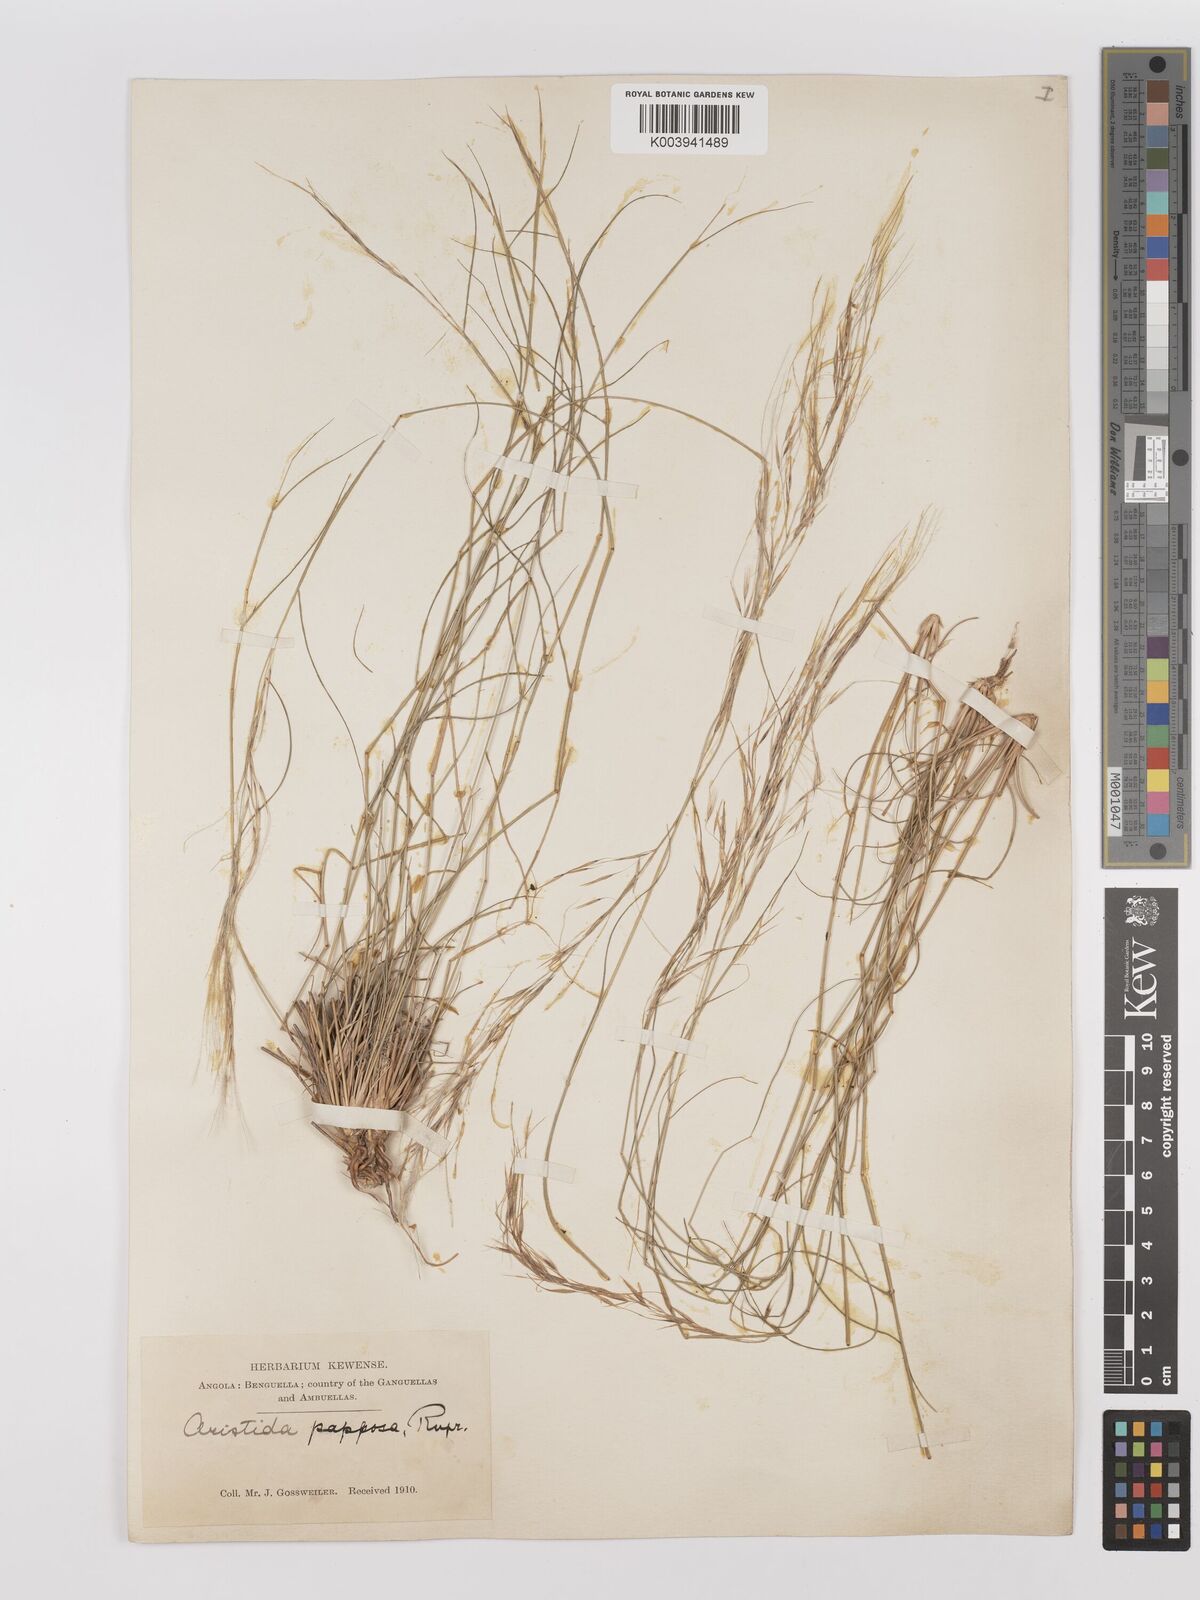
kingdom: Plantae
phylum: Tracheophyta
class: Liliopsida
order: Poales
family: Poaceae
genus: Stipagrostis
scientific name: Stipagrostis uniplumis
